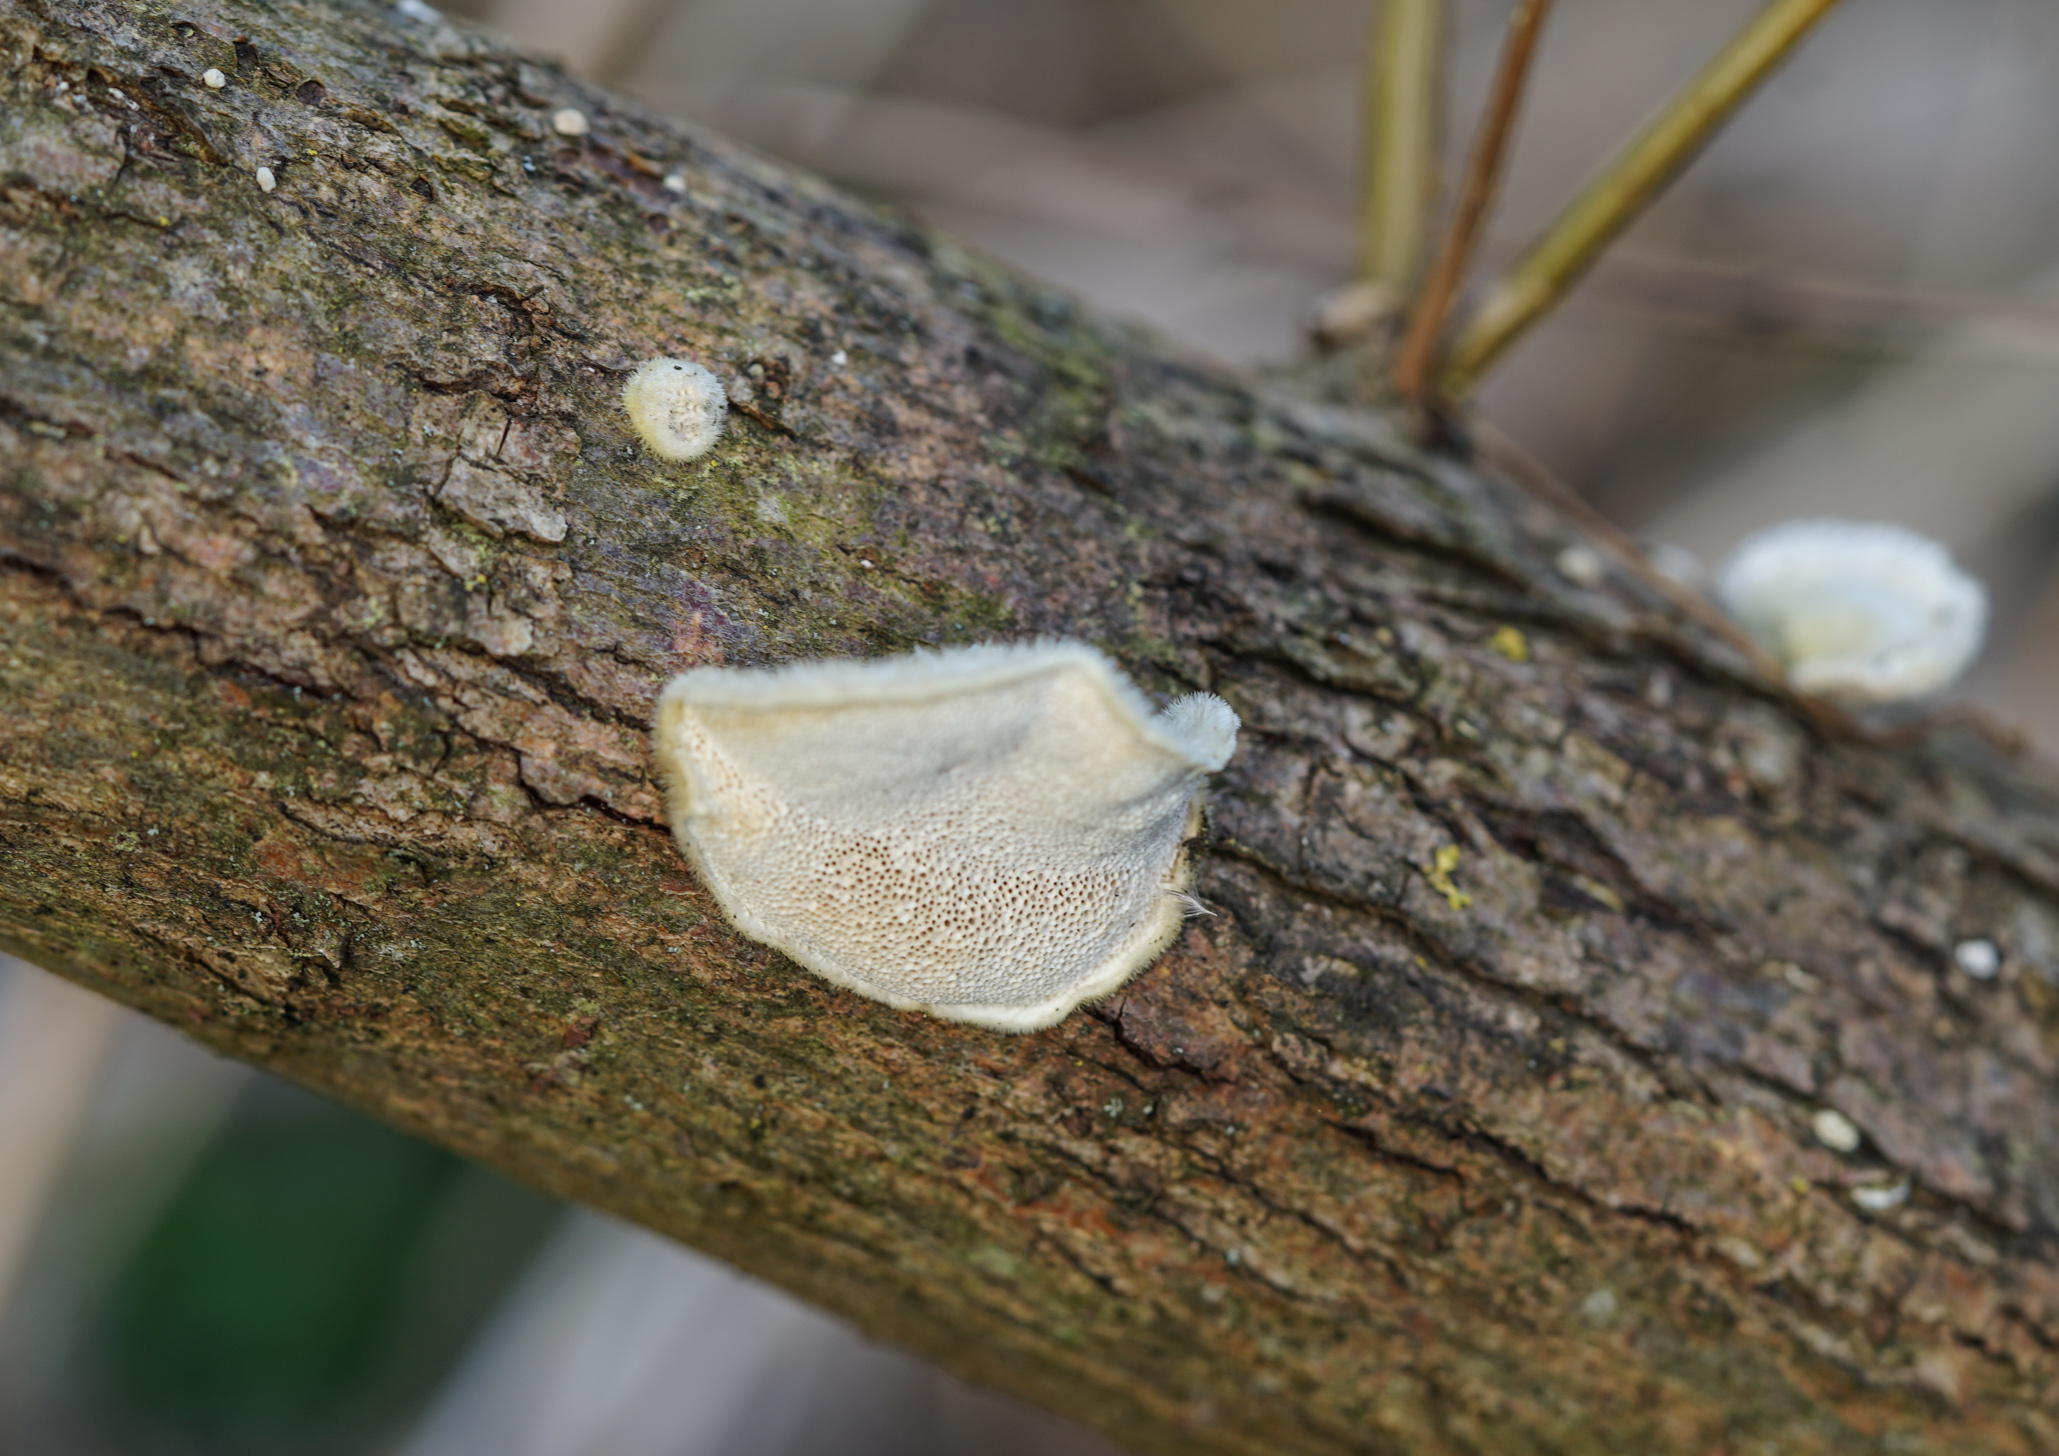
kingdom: Fungi
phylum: Basidiomycota
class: Agaricomycetes
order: Polyporales
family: Polyporaceae
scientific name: Polyporaceae
